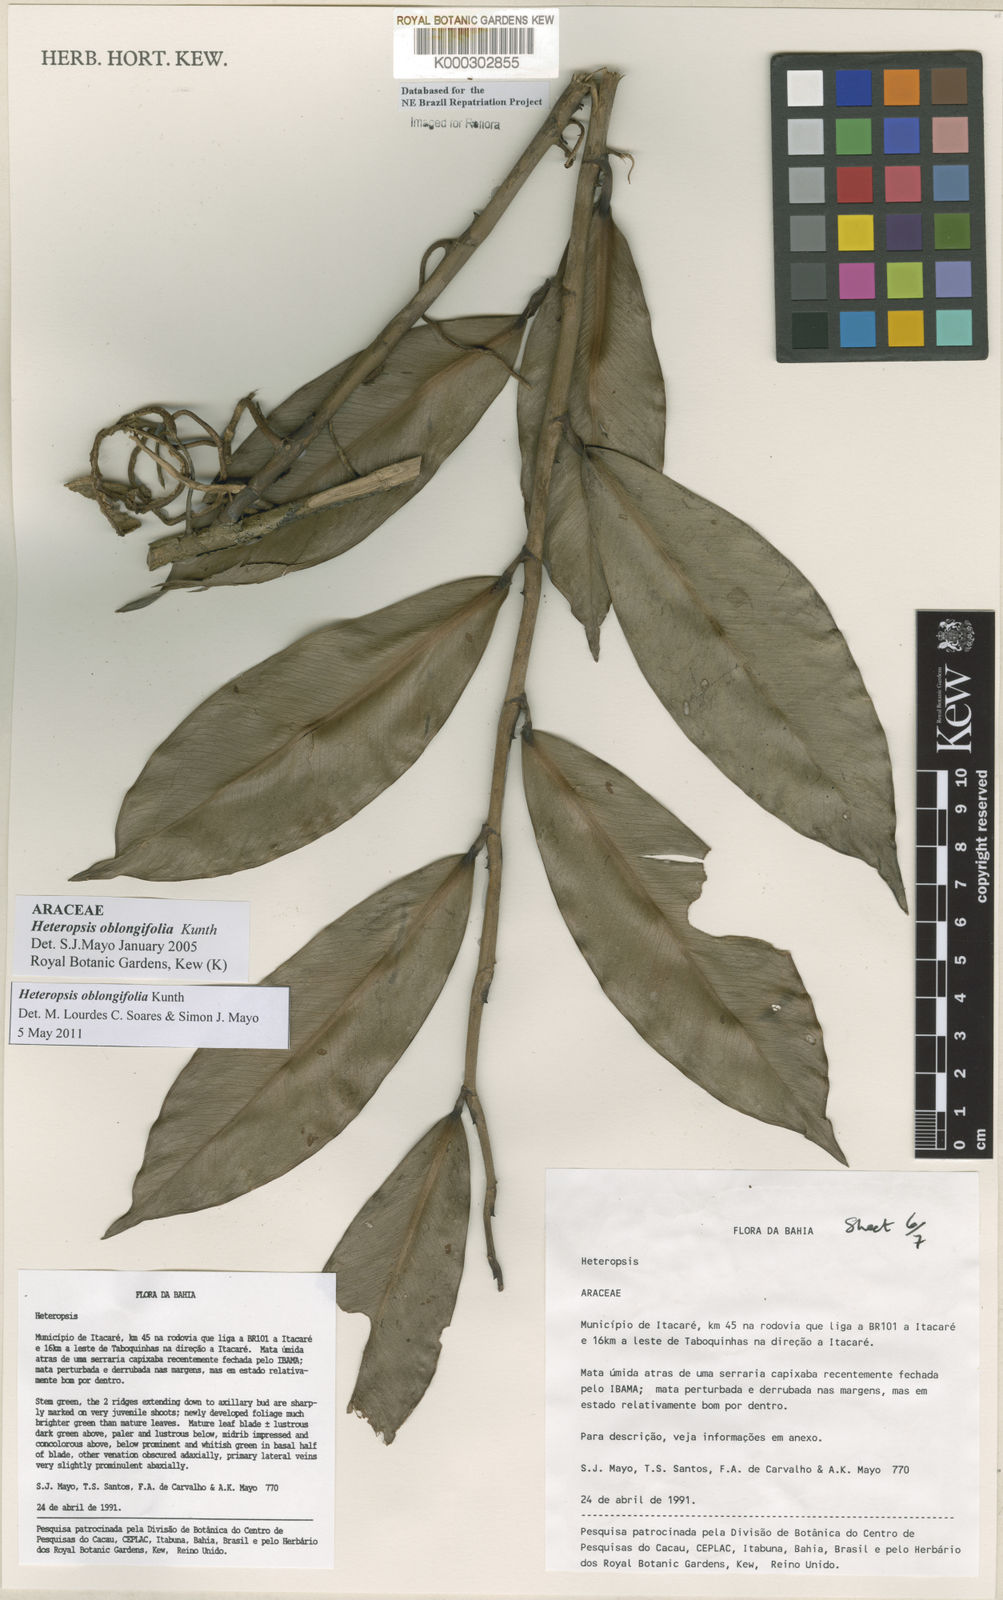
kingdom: Plantae
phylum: Tracheophyta
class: Liliopsida
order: Alismatales
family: Araceae
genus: Heteropsis
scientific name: Heteropsis oblongifolia
